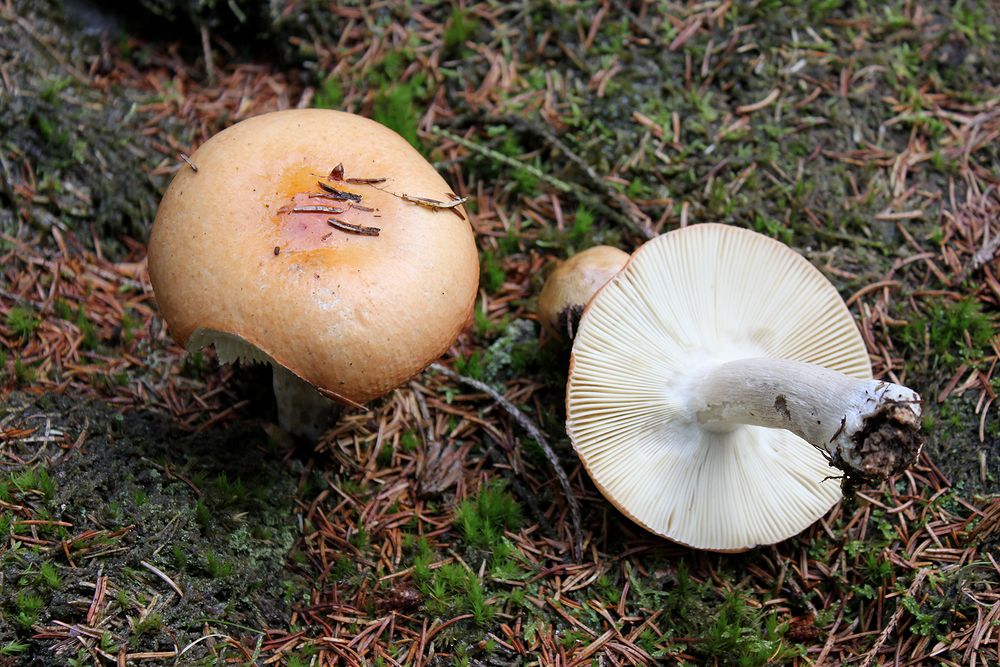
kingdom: Fungi
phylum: Basidiomycota
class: Agaricomycetes
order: Russulales
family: Russulaceae
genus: Russula
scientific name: Russula decolorans
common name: afblegende skørhat
